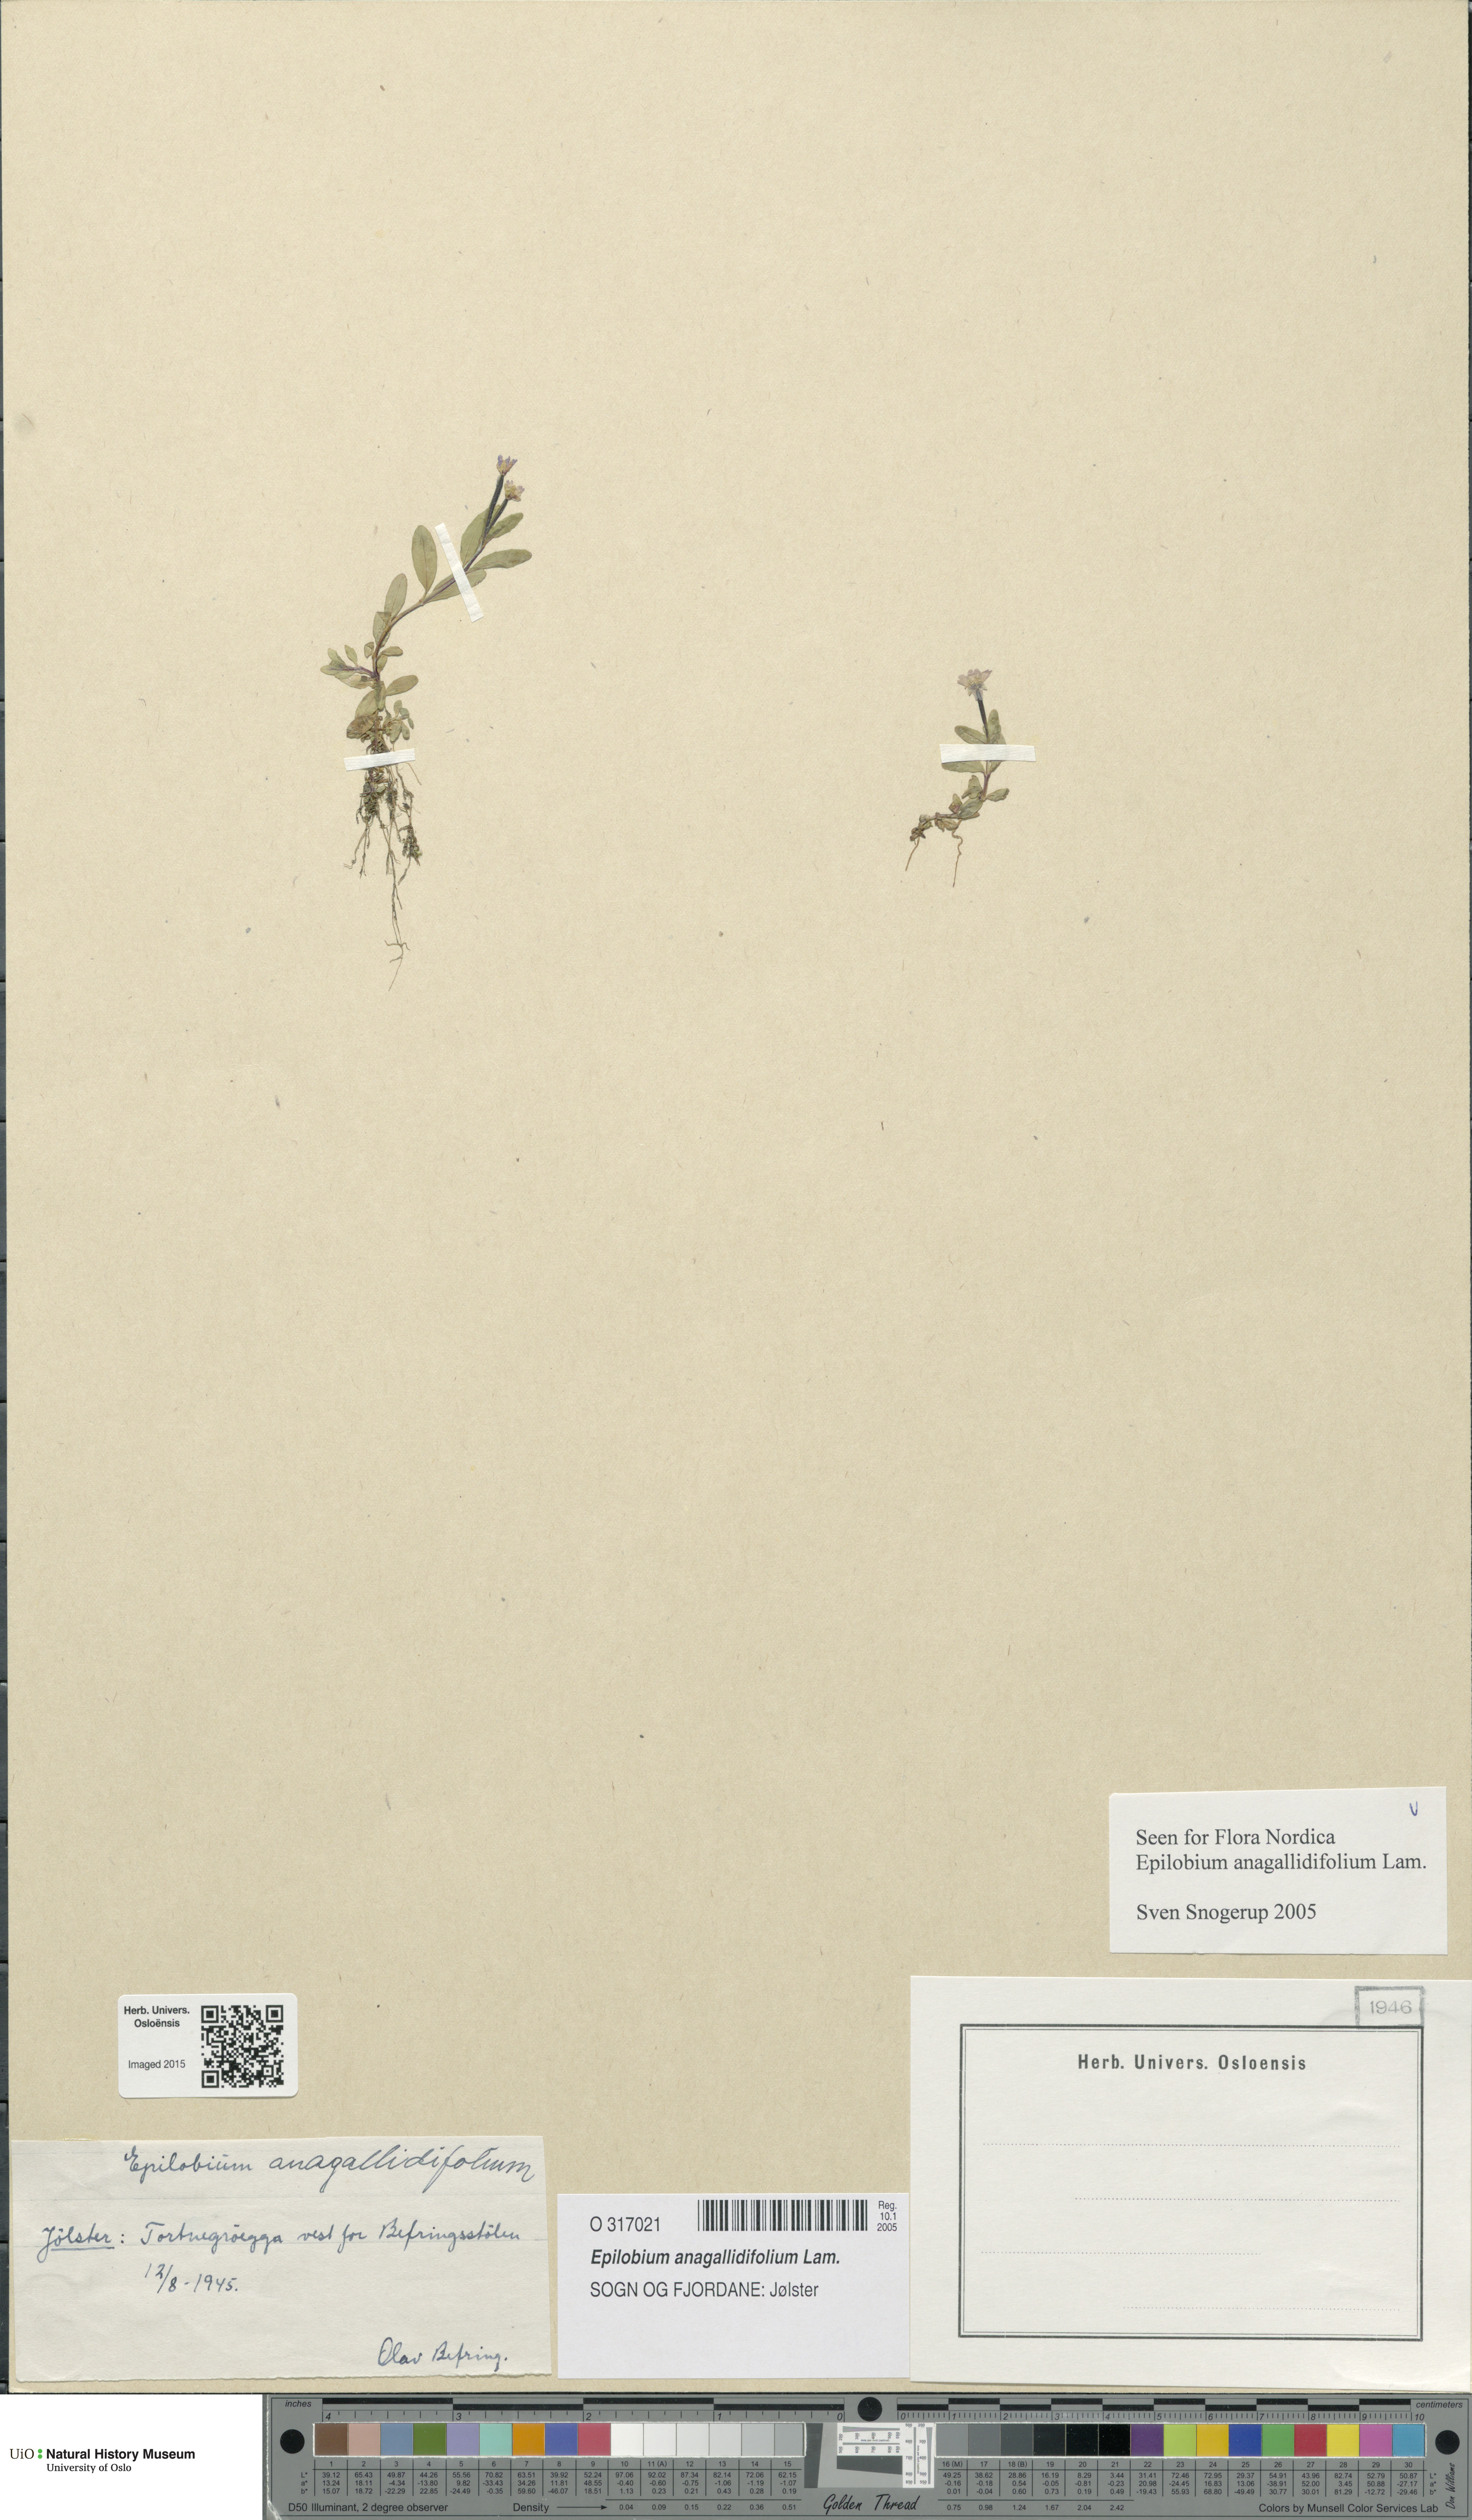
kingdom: Plantae
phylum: Tracheophyta
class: Magnoliopsida
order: Myrtales
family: Onagraceae
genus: Epilobium
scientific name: Epilobium anagallidifolium
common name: Alpine willowherb
